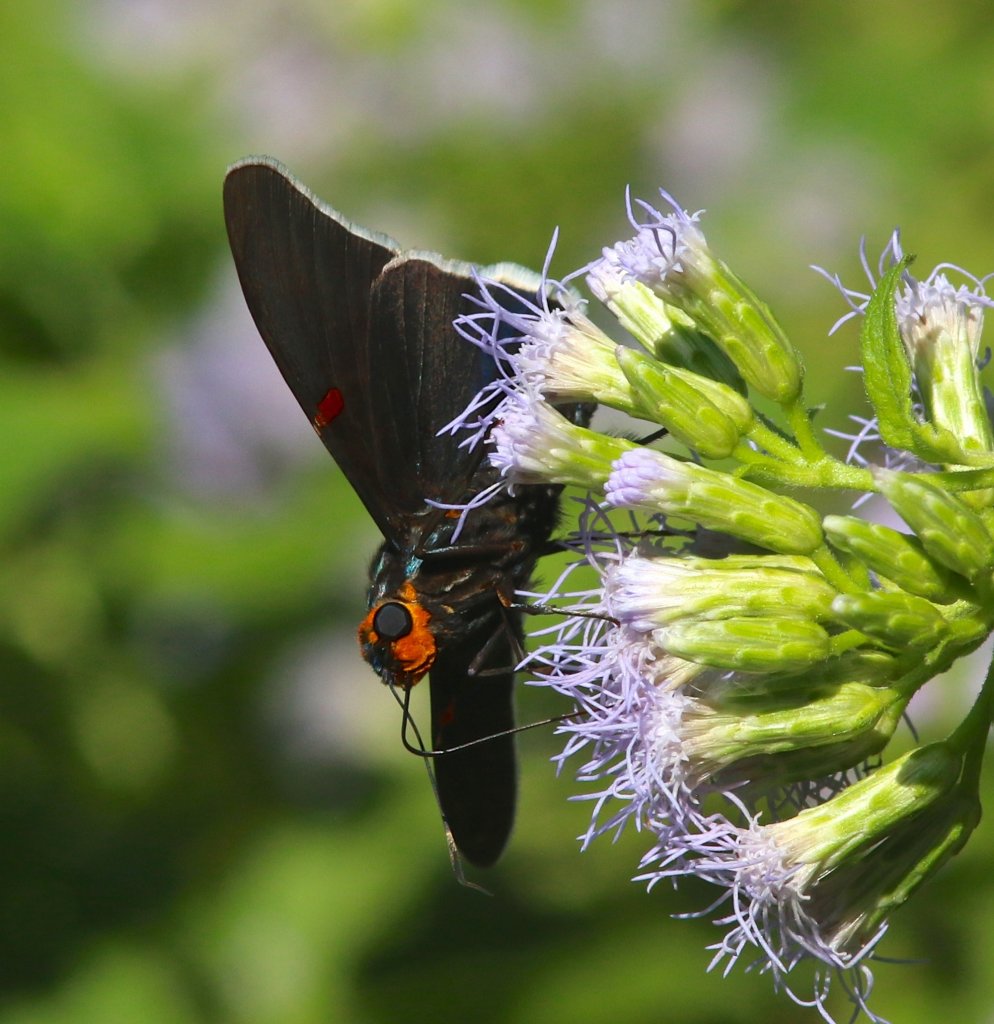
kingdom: Animalia
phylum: Arthropoda
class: Insecta
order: Lepidoptera
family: Hesperiidae
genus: Phocides
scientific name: Phocides polybius
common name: Guava Skipper
